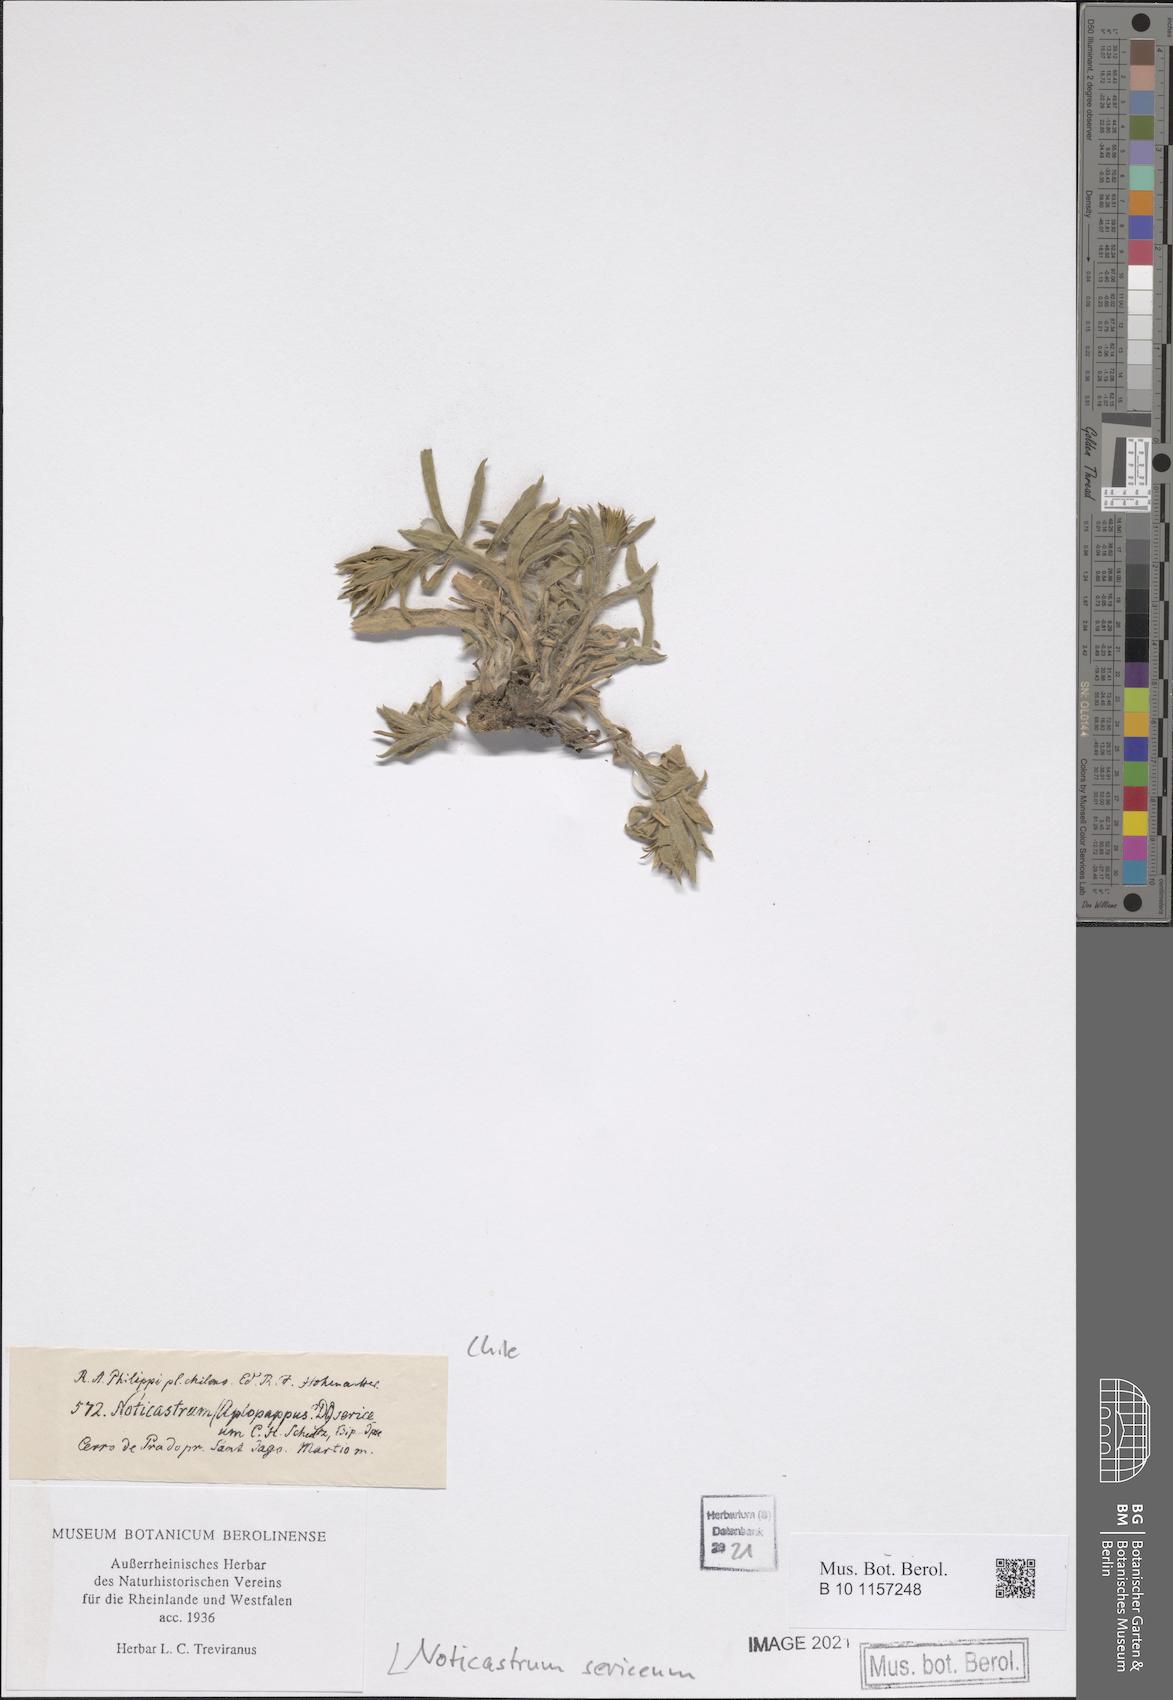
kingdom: Plantae
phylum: Tracheophyta
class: Magnoliopsida
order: Asterales
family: Asteraceae
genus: Noticastrum
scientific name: Noticastrum sericeum
